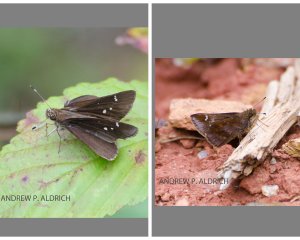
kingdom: Animalia
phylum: Arthropoda
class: Insecta
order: Lepidoptera
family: Hesperiidae
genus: Lerema
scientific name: Lerema accius
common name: Clouded Skipper
